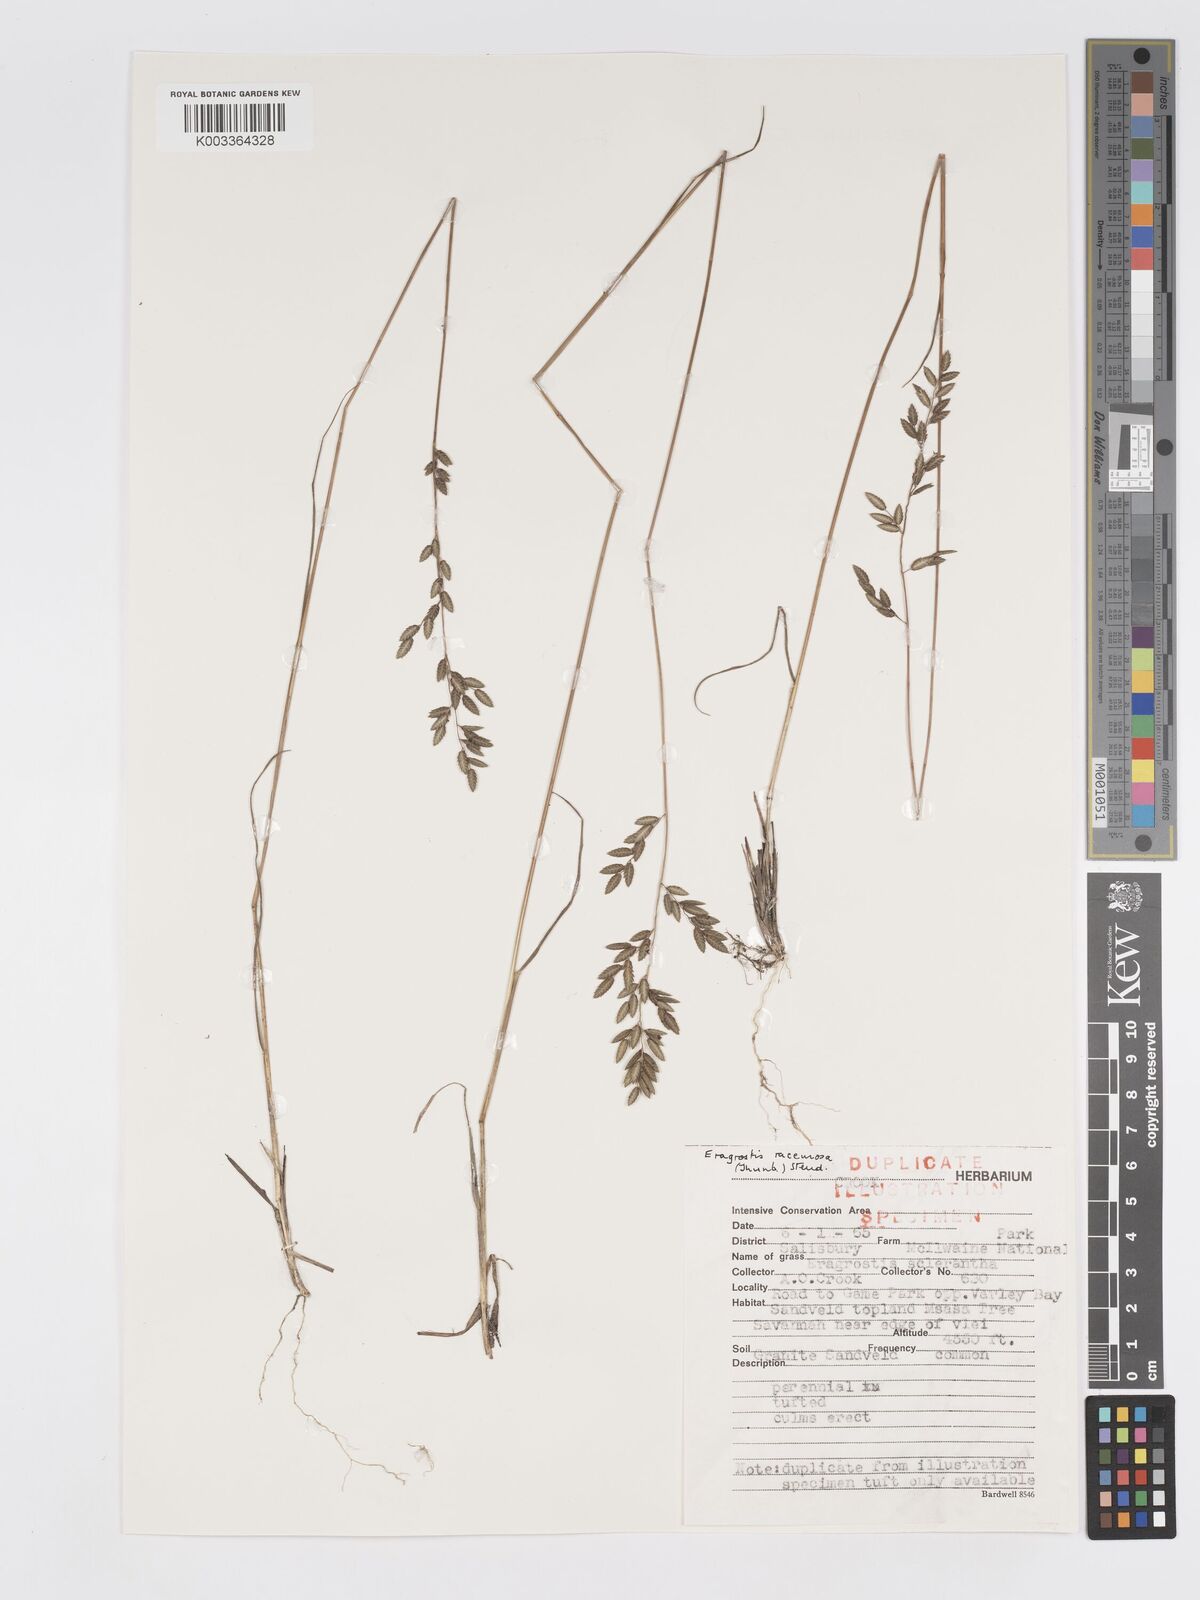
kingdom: Plantae
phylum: Tracheophyta
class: Liliopsida
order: Poales
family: Poaceae
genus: Eragrostis
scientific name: Eragrostis racemosa
